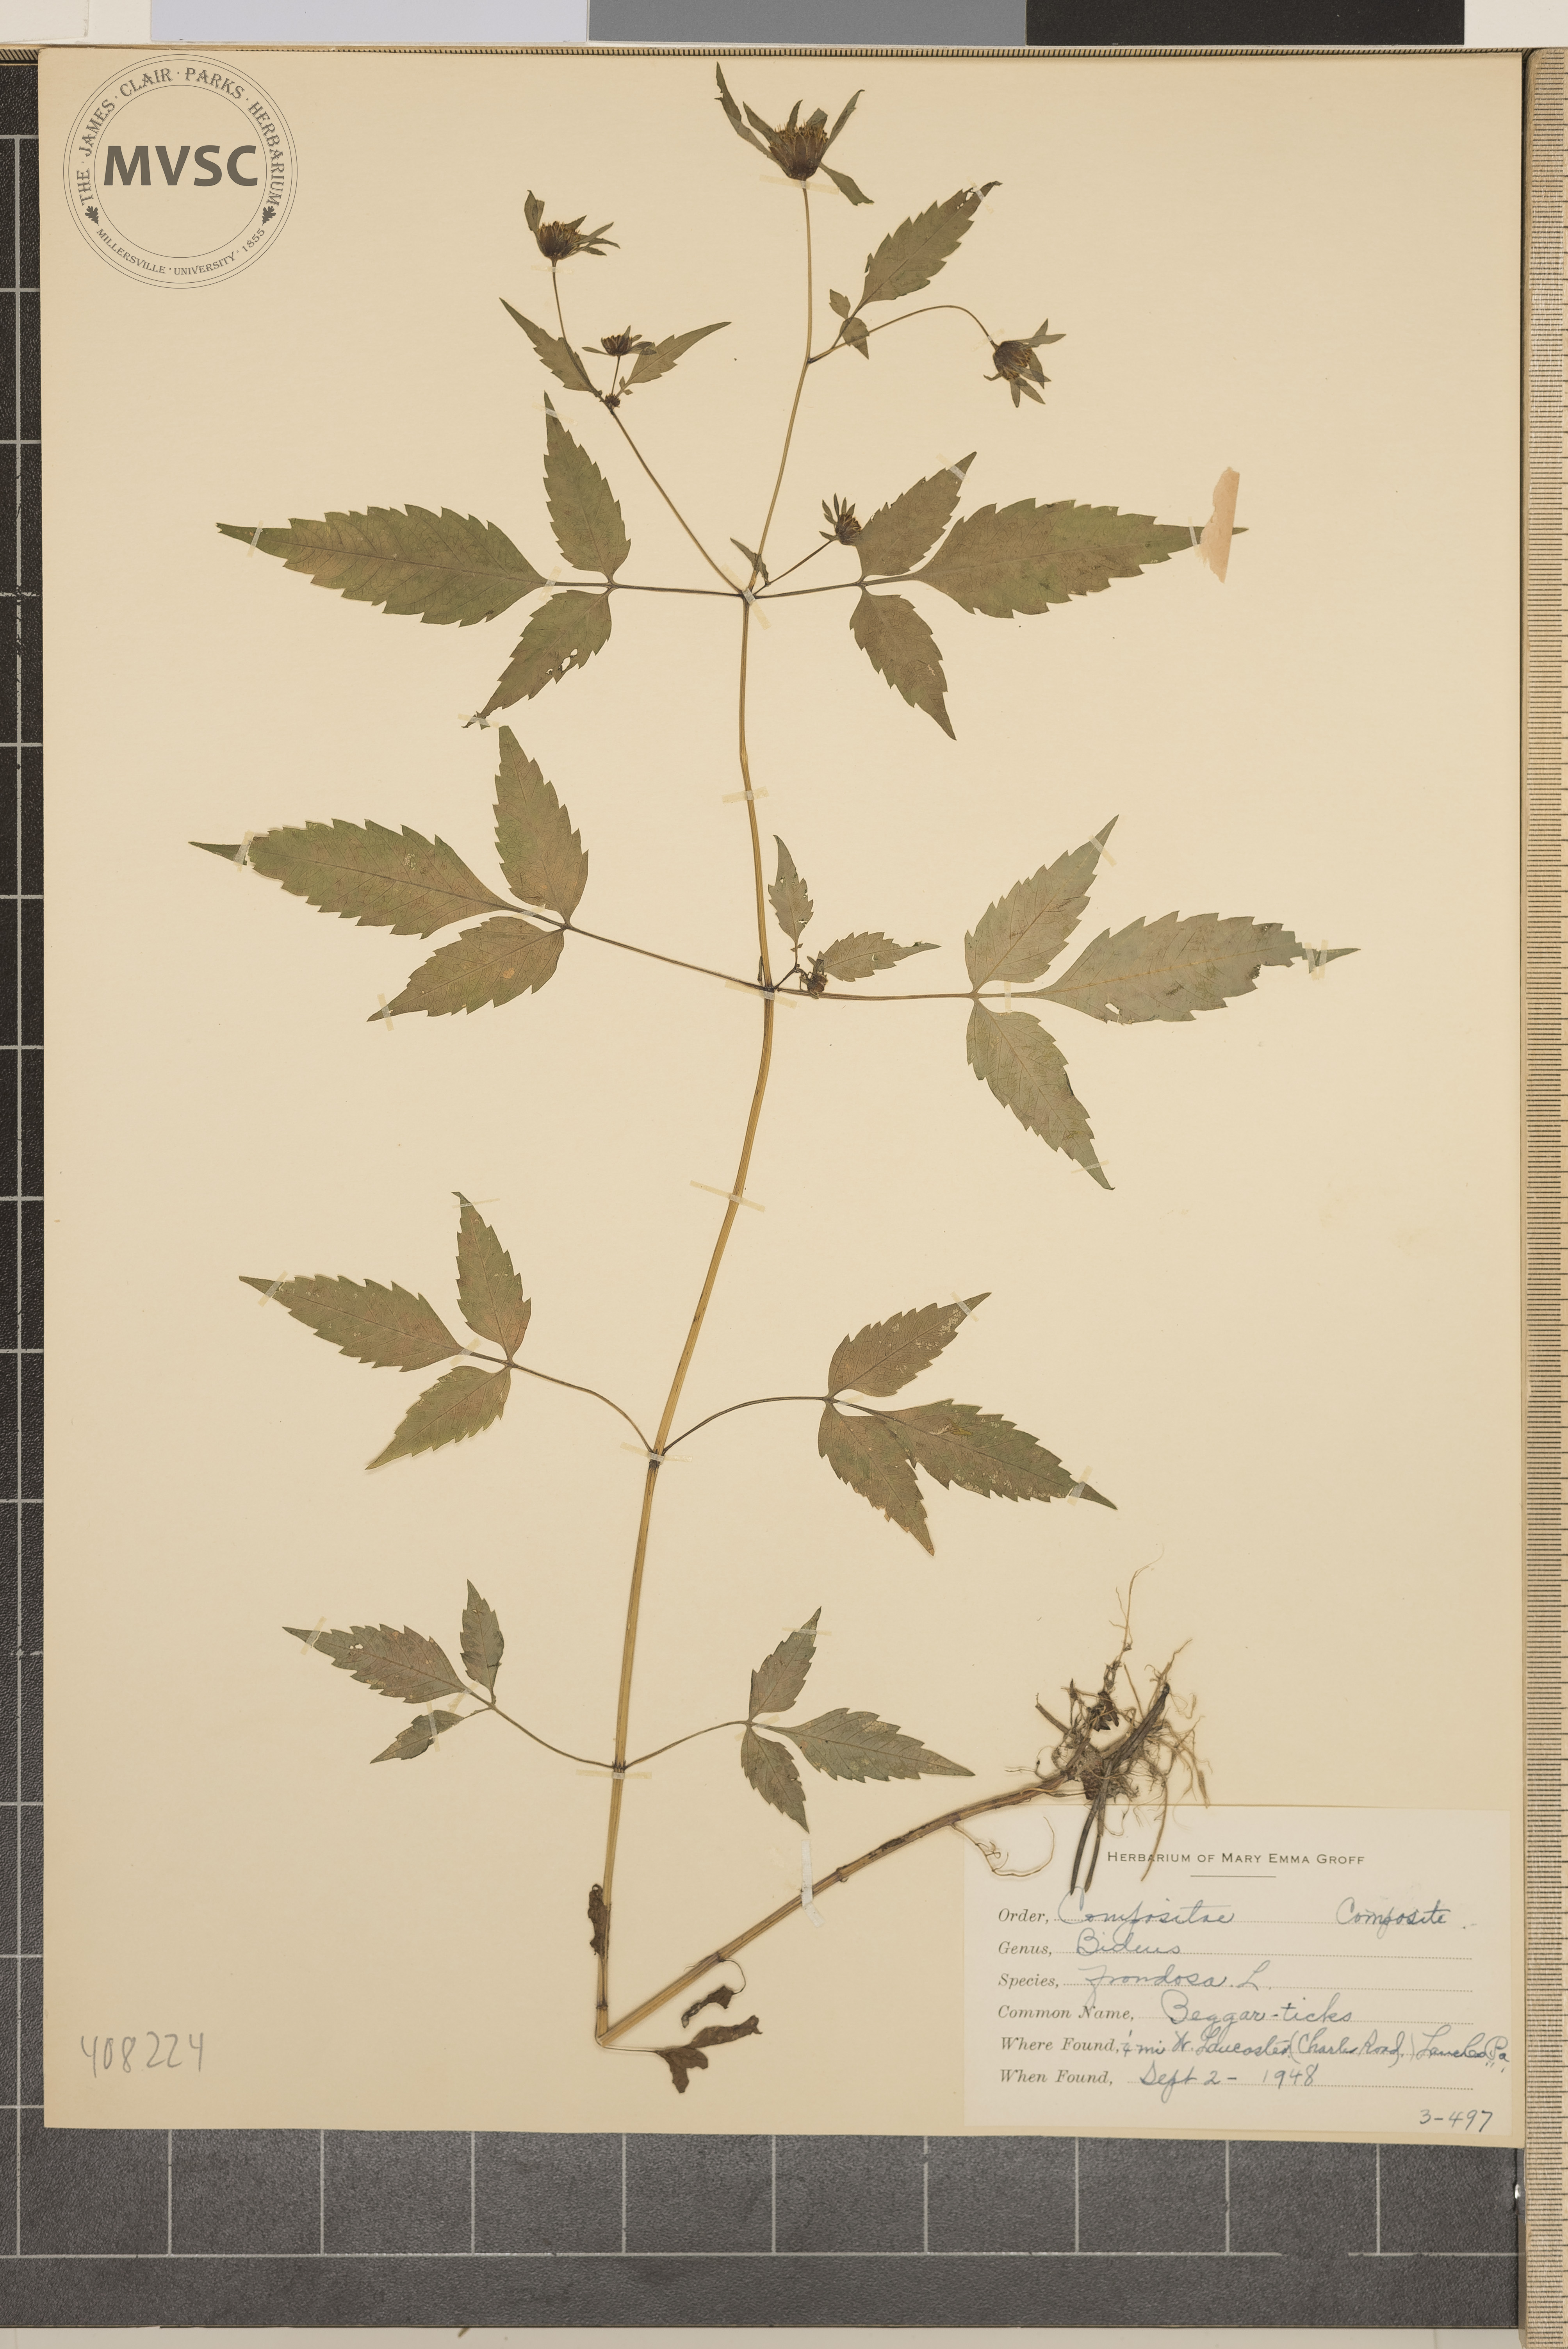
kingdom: Plantae
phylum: Tracheophyta
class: Magnoliopsida
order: Asterales
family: Asteraceae
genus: Bidens
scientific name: Bidens frondosa
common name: Beggar-ticks
